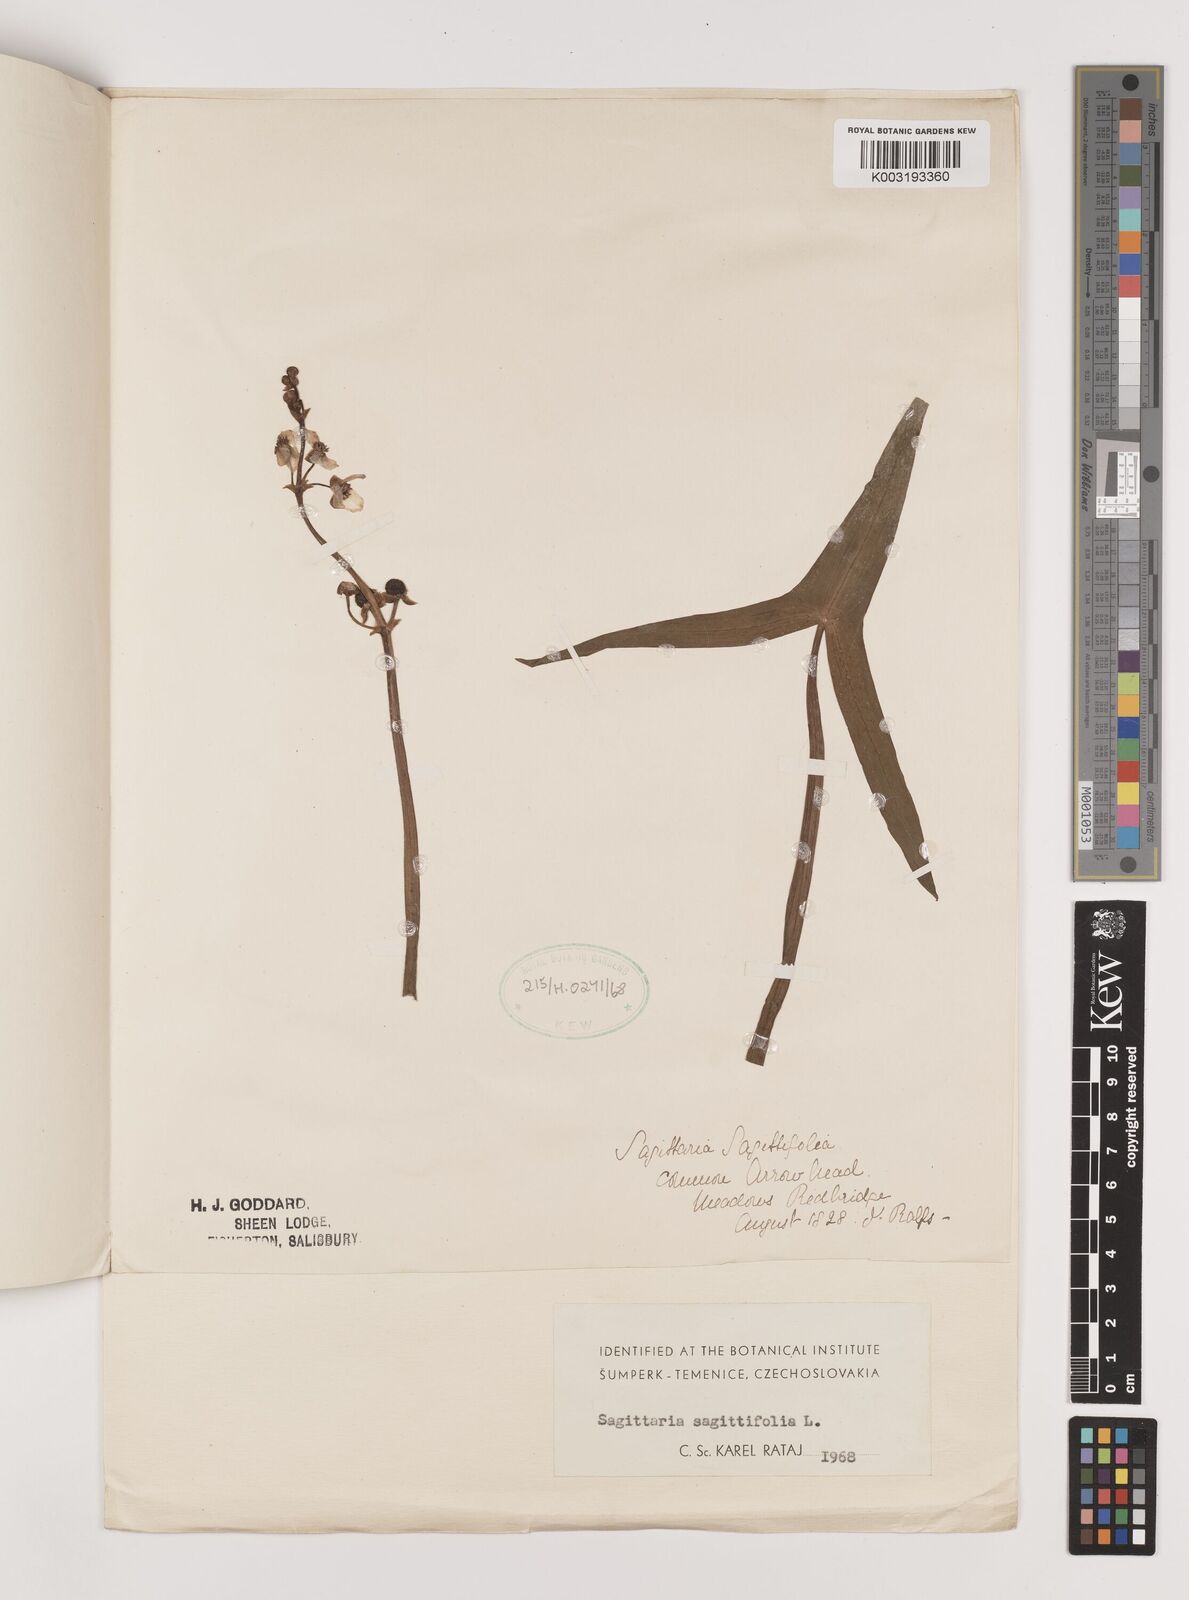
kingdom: Plantae
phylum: Tracheophyta
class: Liliopsida
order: Alismatales
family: Alismataceae
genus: Sagittaria
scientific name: Sagittaria sagittifolia
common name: Arrowhead
